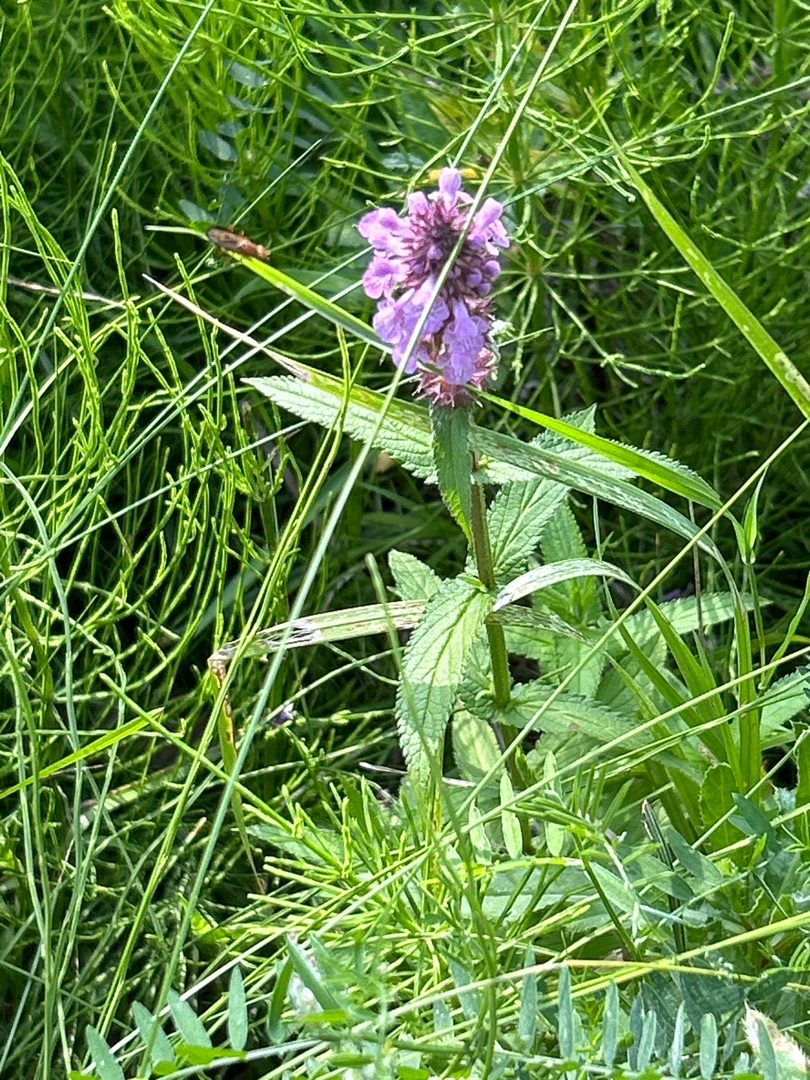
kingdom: Plantae
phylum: Tracheophyta
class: Magnoliopsida
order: Lamiales
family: Lamiaceae
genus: Stachys
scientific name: Stachys palustris
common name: Kær-galtetand
